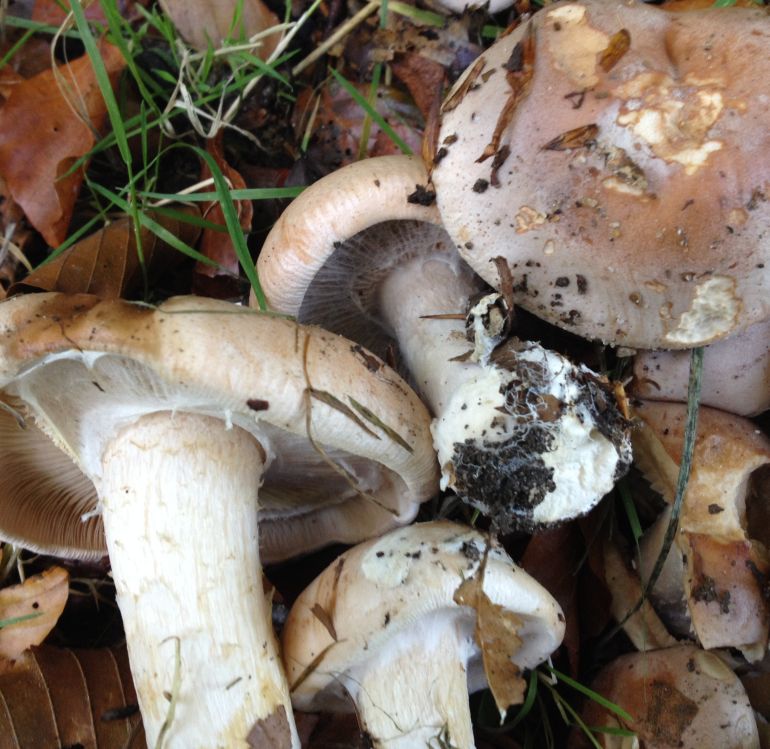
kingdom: Fungi
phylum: Basidiomycota
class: Agaricomycetes
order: Agaricales
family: Hymenogastraceae
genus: Hebeloma
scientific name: Hebeloma
